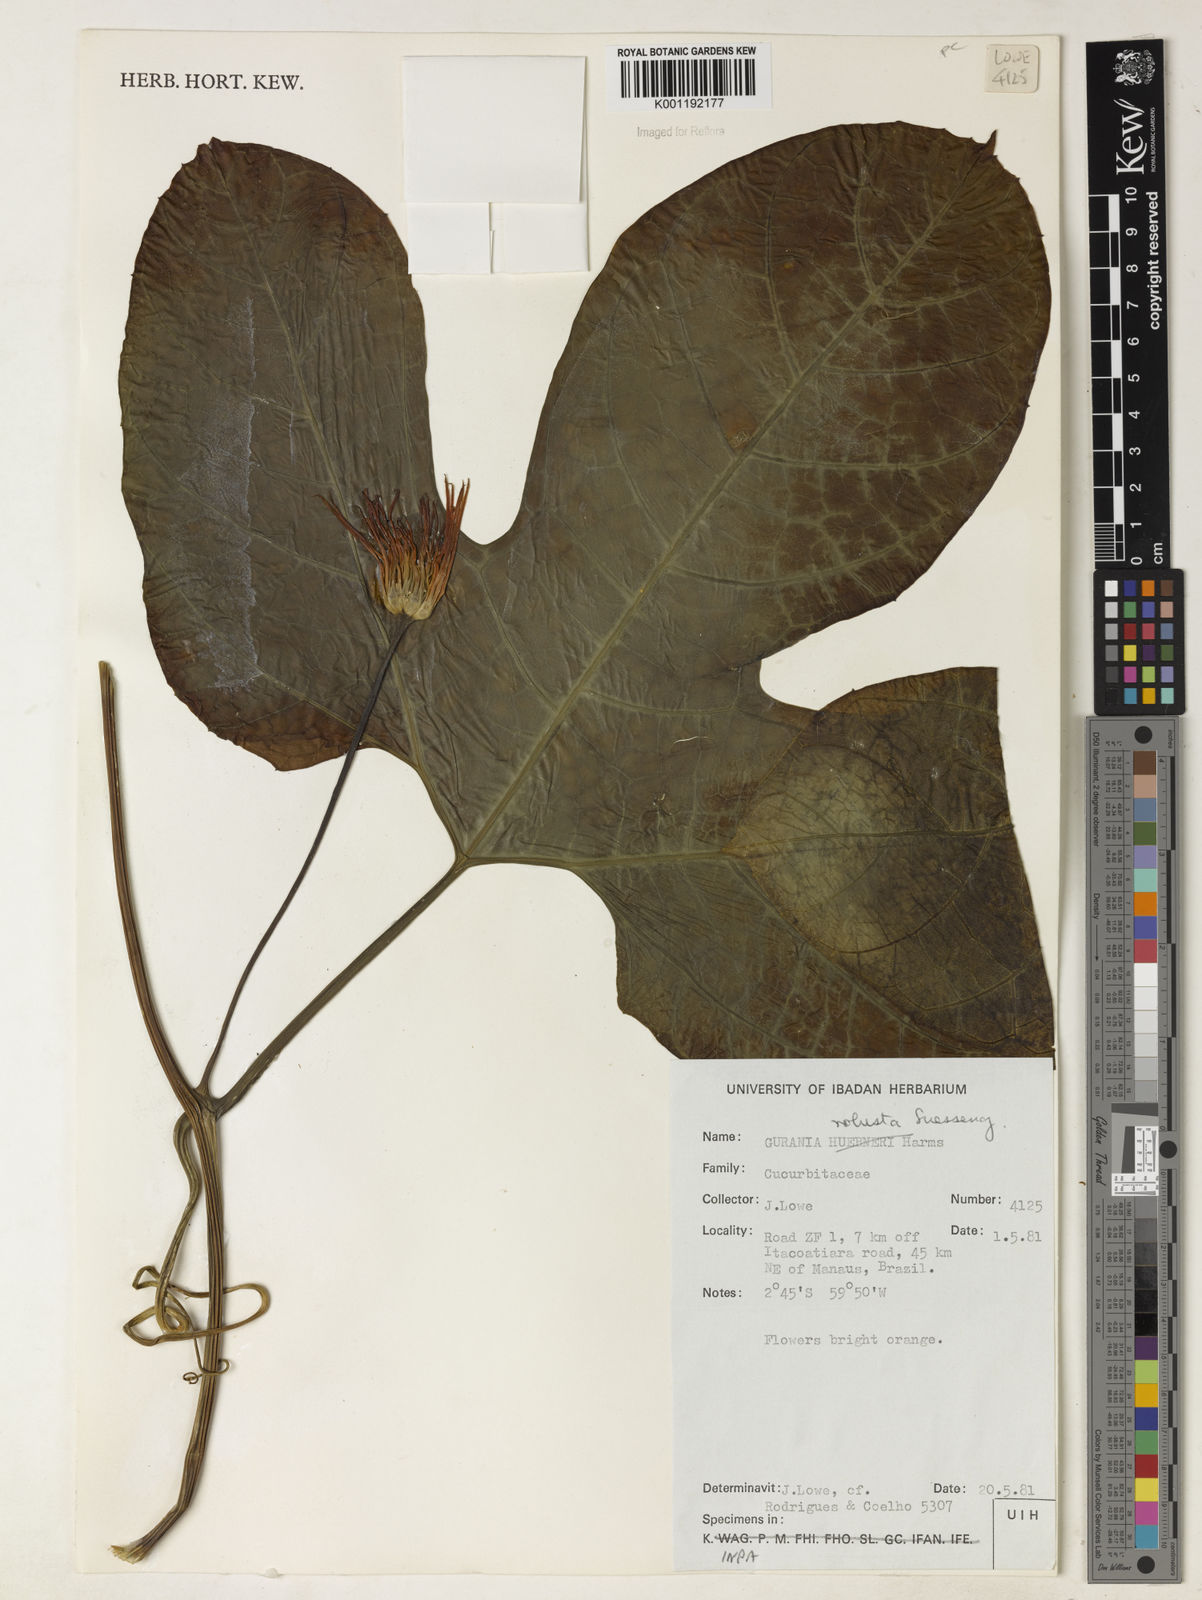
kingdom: Plantae
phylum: Tracheophyta
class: Magnoliopsida
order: Cucurbitales
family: Cucurbitaceae
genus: Gurania
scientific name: Gurania
